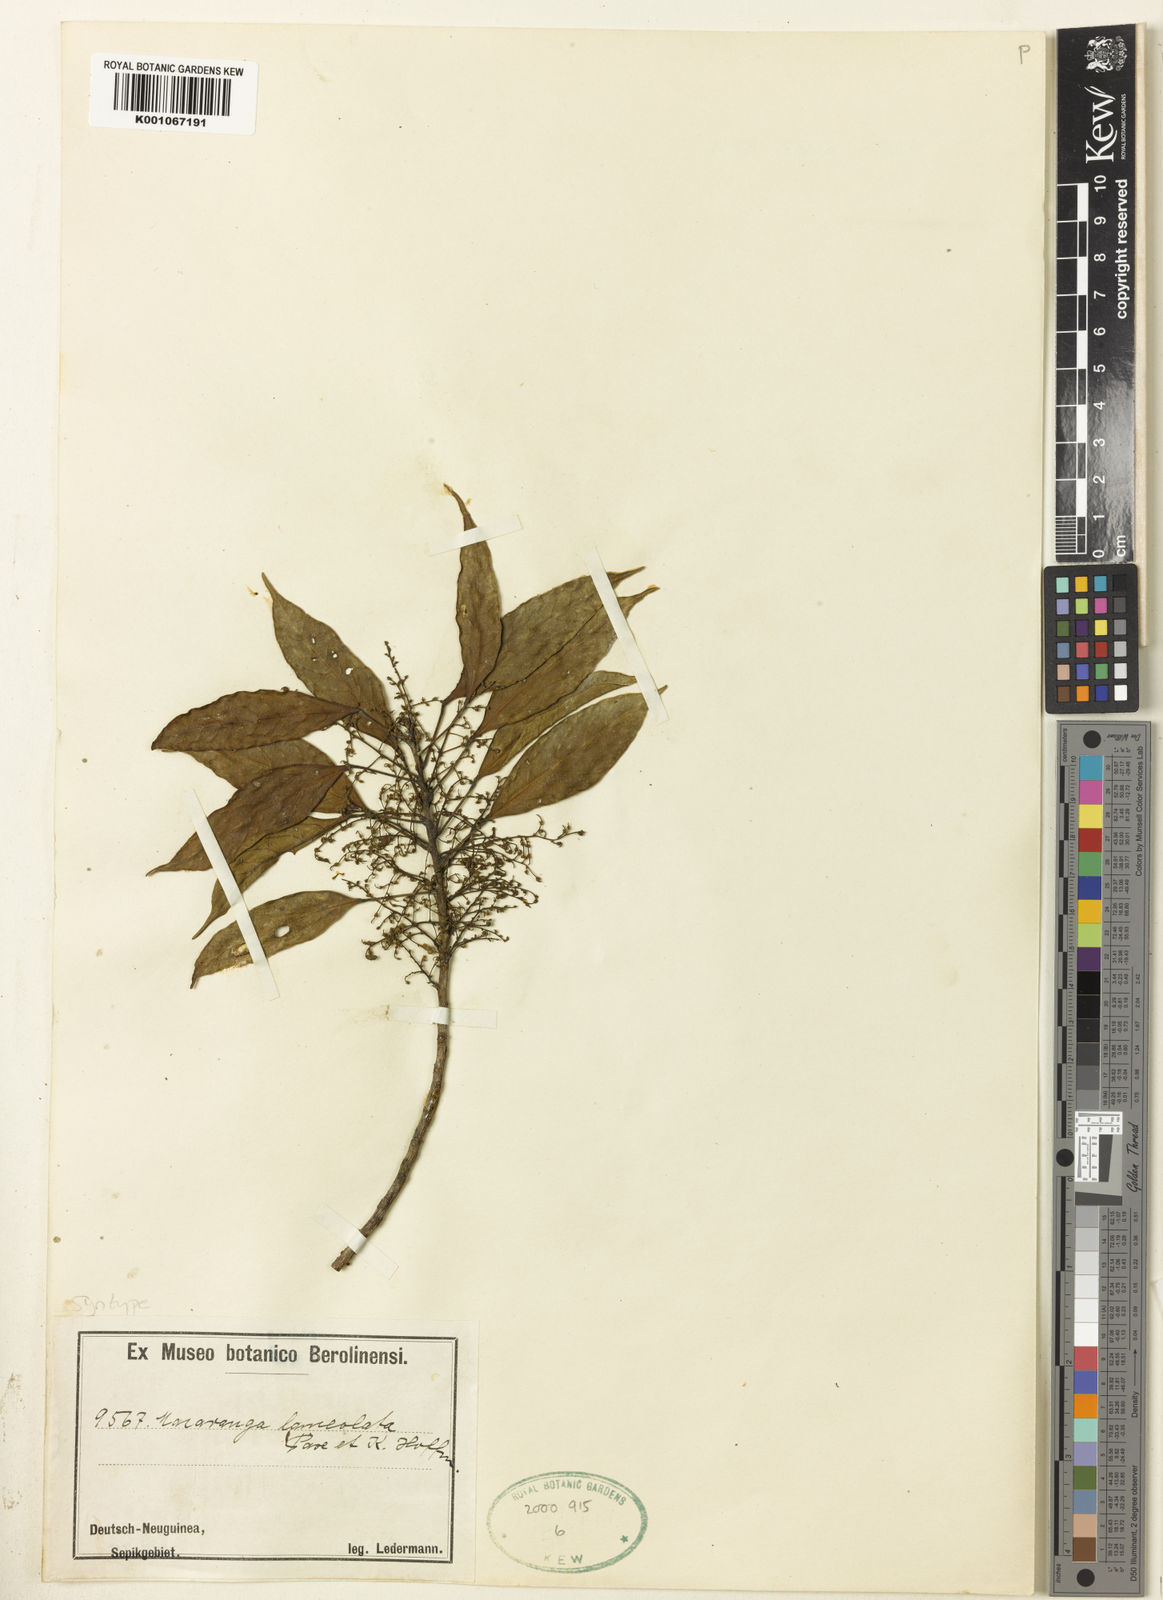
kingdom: Plantae
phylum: Tracheophyta
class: Magnoliopsida
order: Malpighiales
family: Euphorbiaceae
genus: Macaranga
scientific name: Macaranga lanceolata
